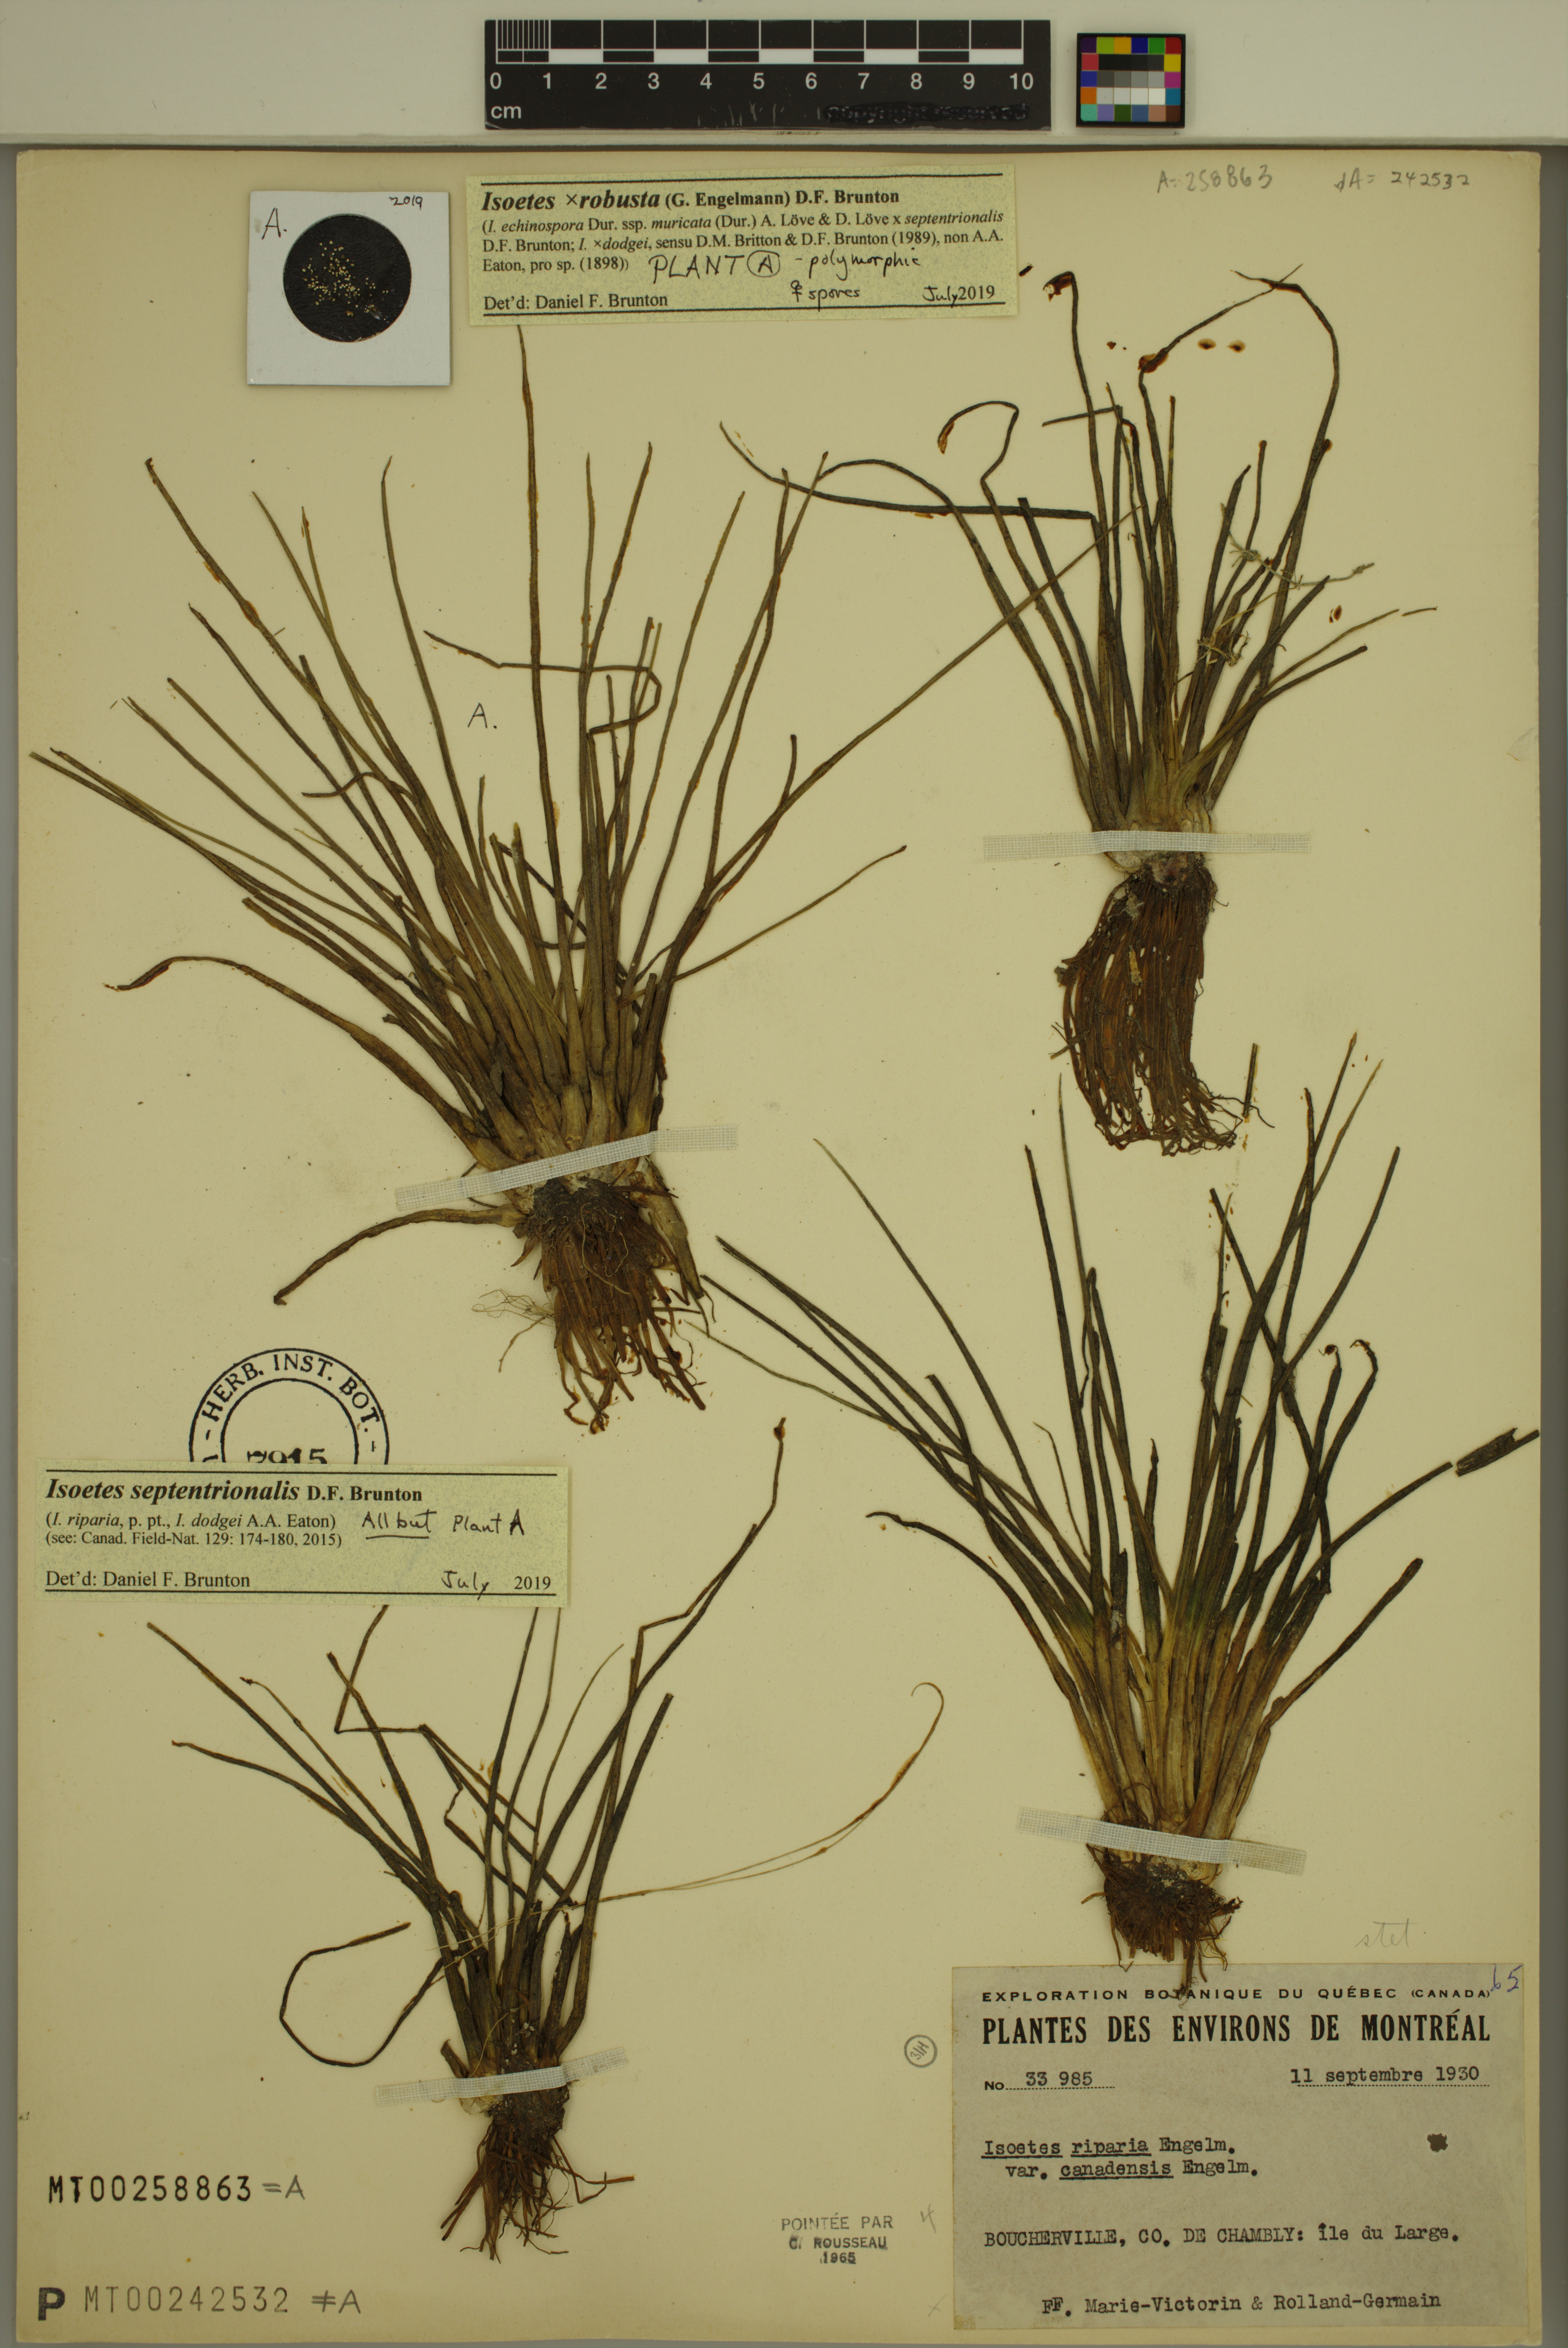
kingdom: Plantae
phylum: Tracheophyta
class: Lycopodiopsida
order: Isoetales
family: Isoetaceae
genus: Isoetes
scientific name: Isoetes septentrionalis
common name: Northern quillwort
